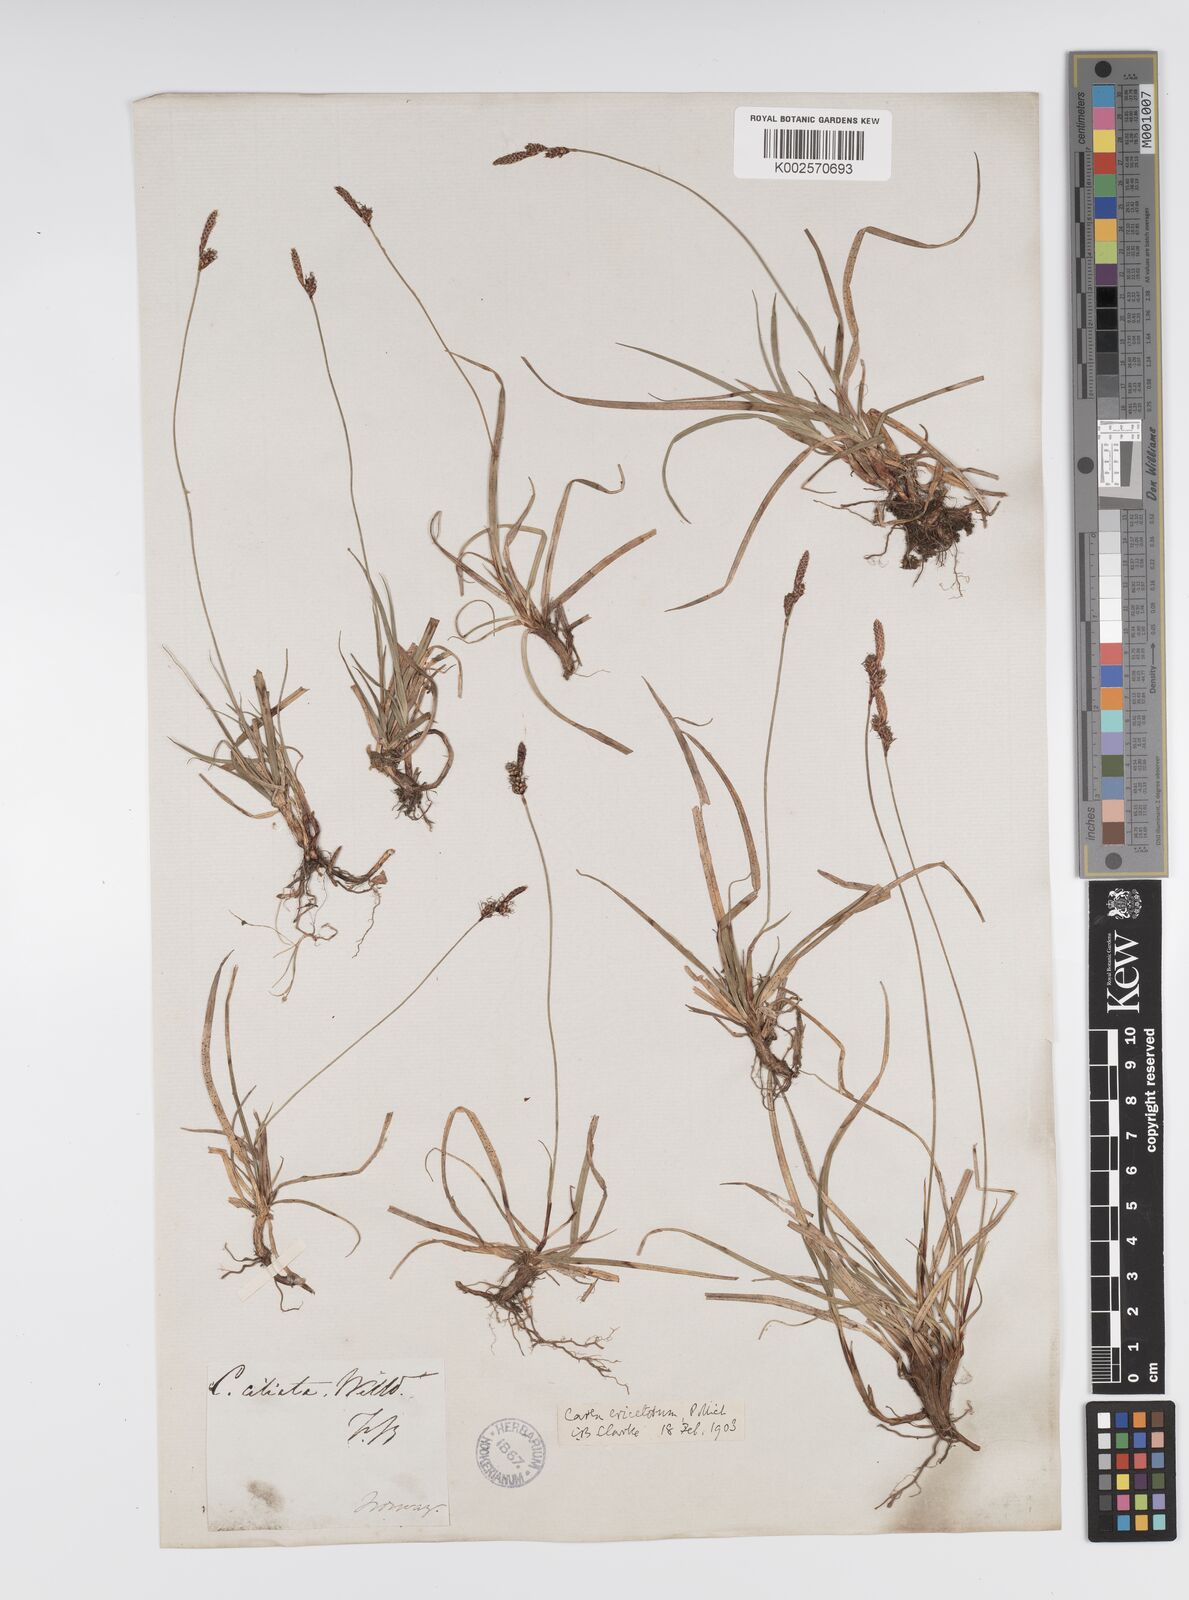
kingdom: Plantae
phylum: Tracheophyta
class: Liliopsida
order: Poales
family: Cyperaceae
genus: Carex
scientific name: Carex ericetorum
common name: Rare spring-sedge
